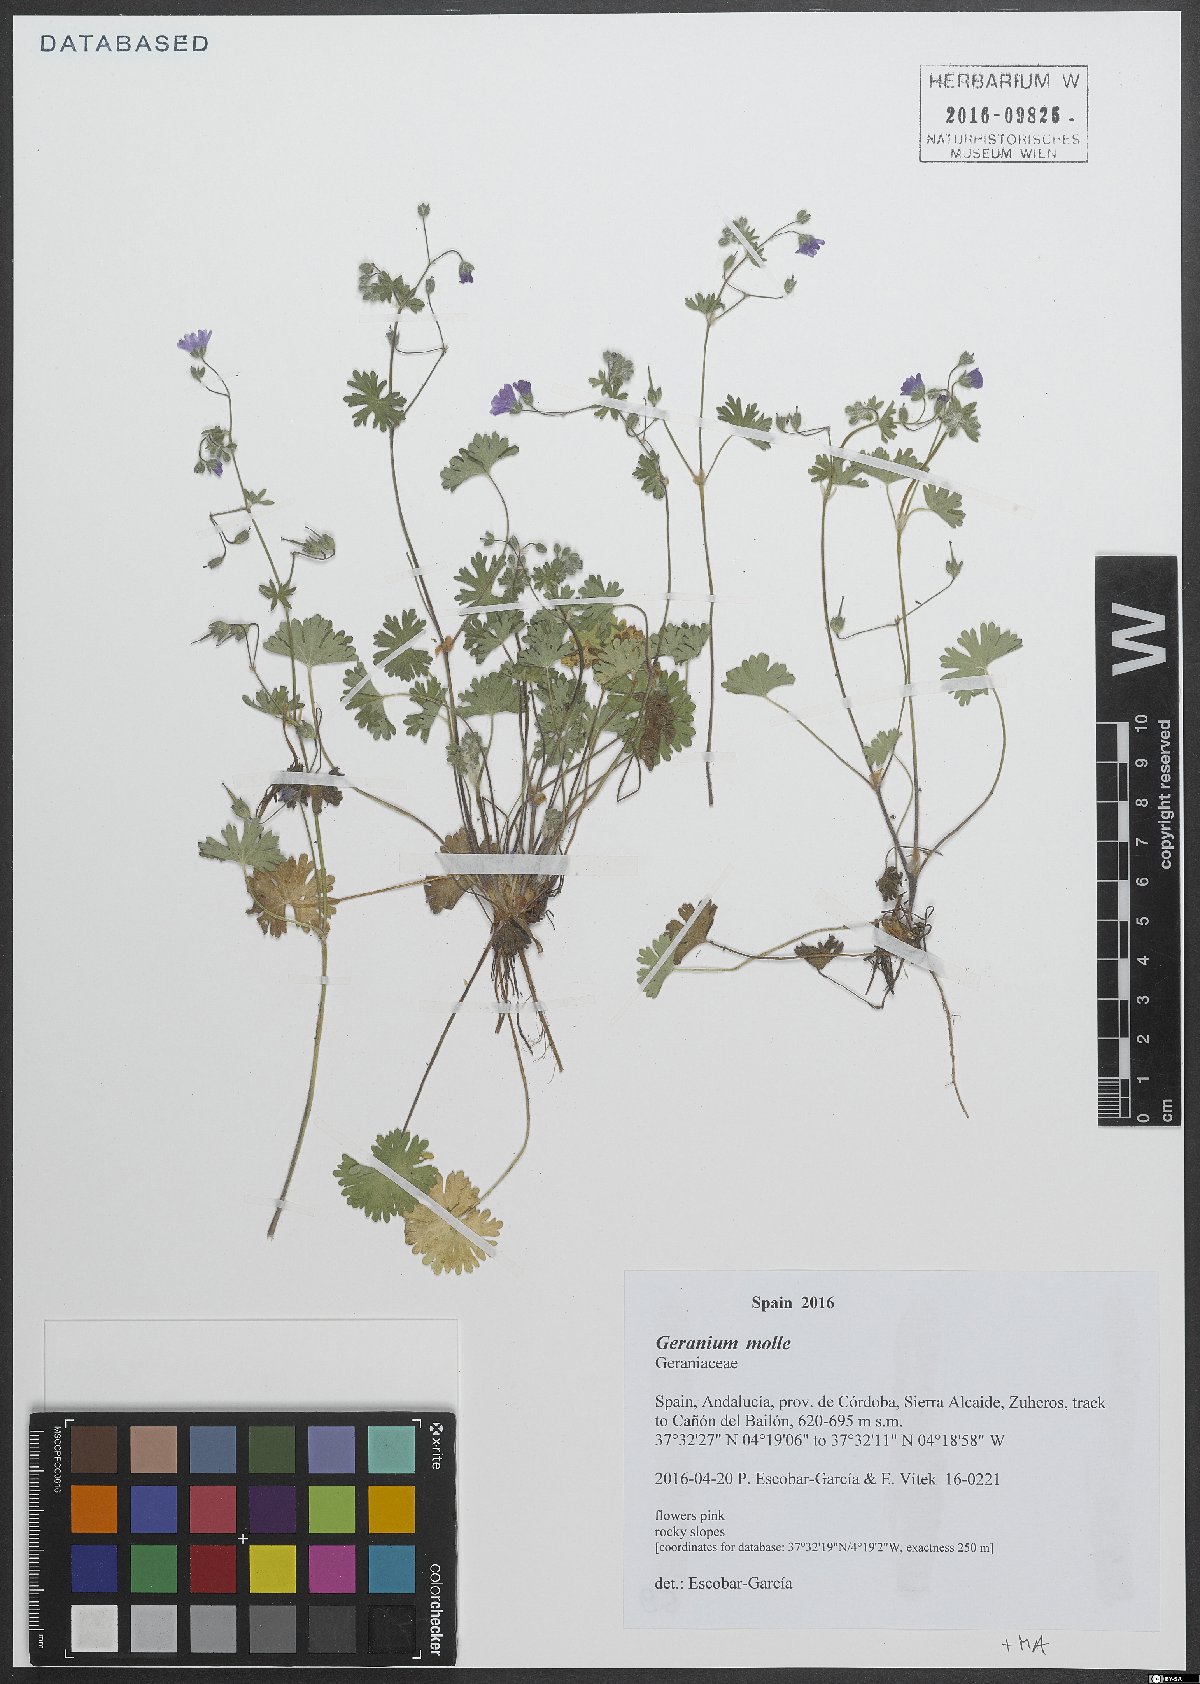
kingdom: Plantae
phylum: Tracheophyta
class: Magnoliopsida
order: Geraniales
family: Geraniaceae
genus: Geranium
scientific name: Geranium molle
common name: Dove's-foot crane's-bill
